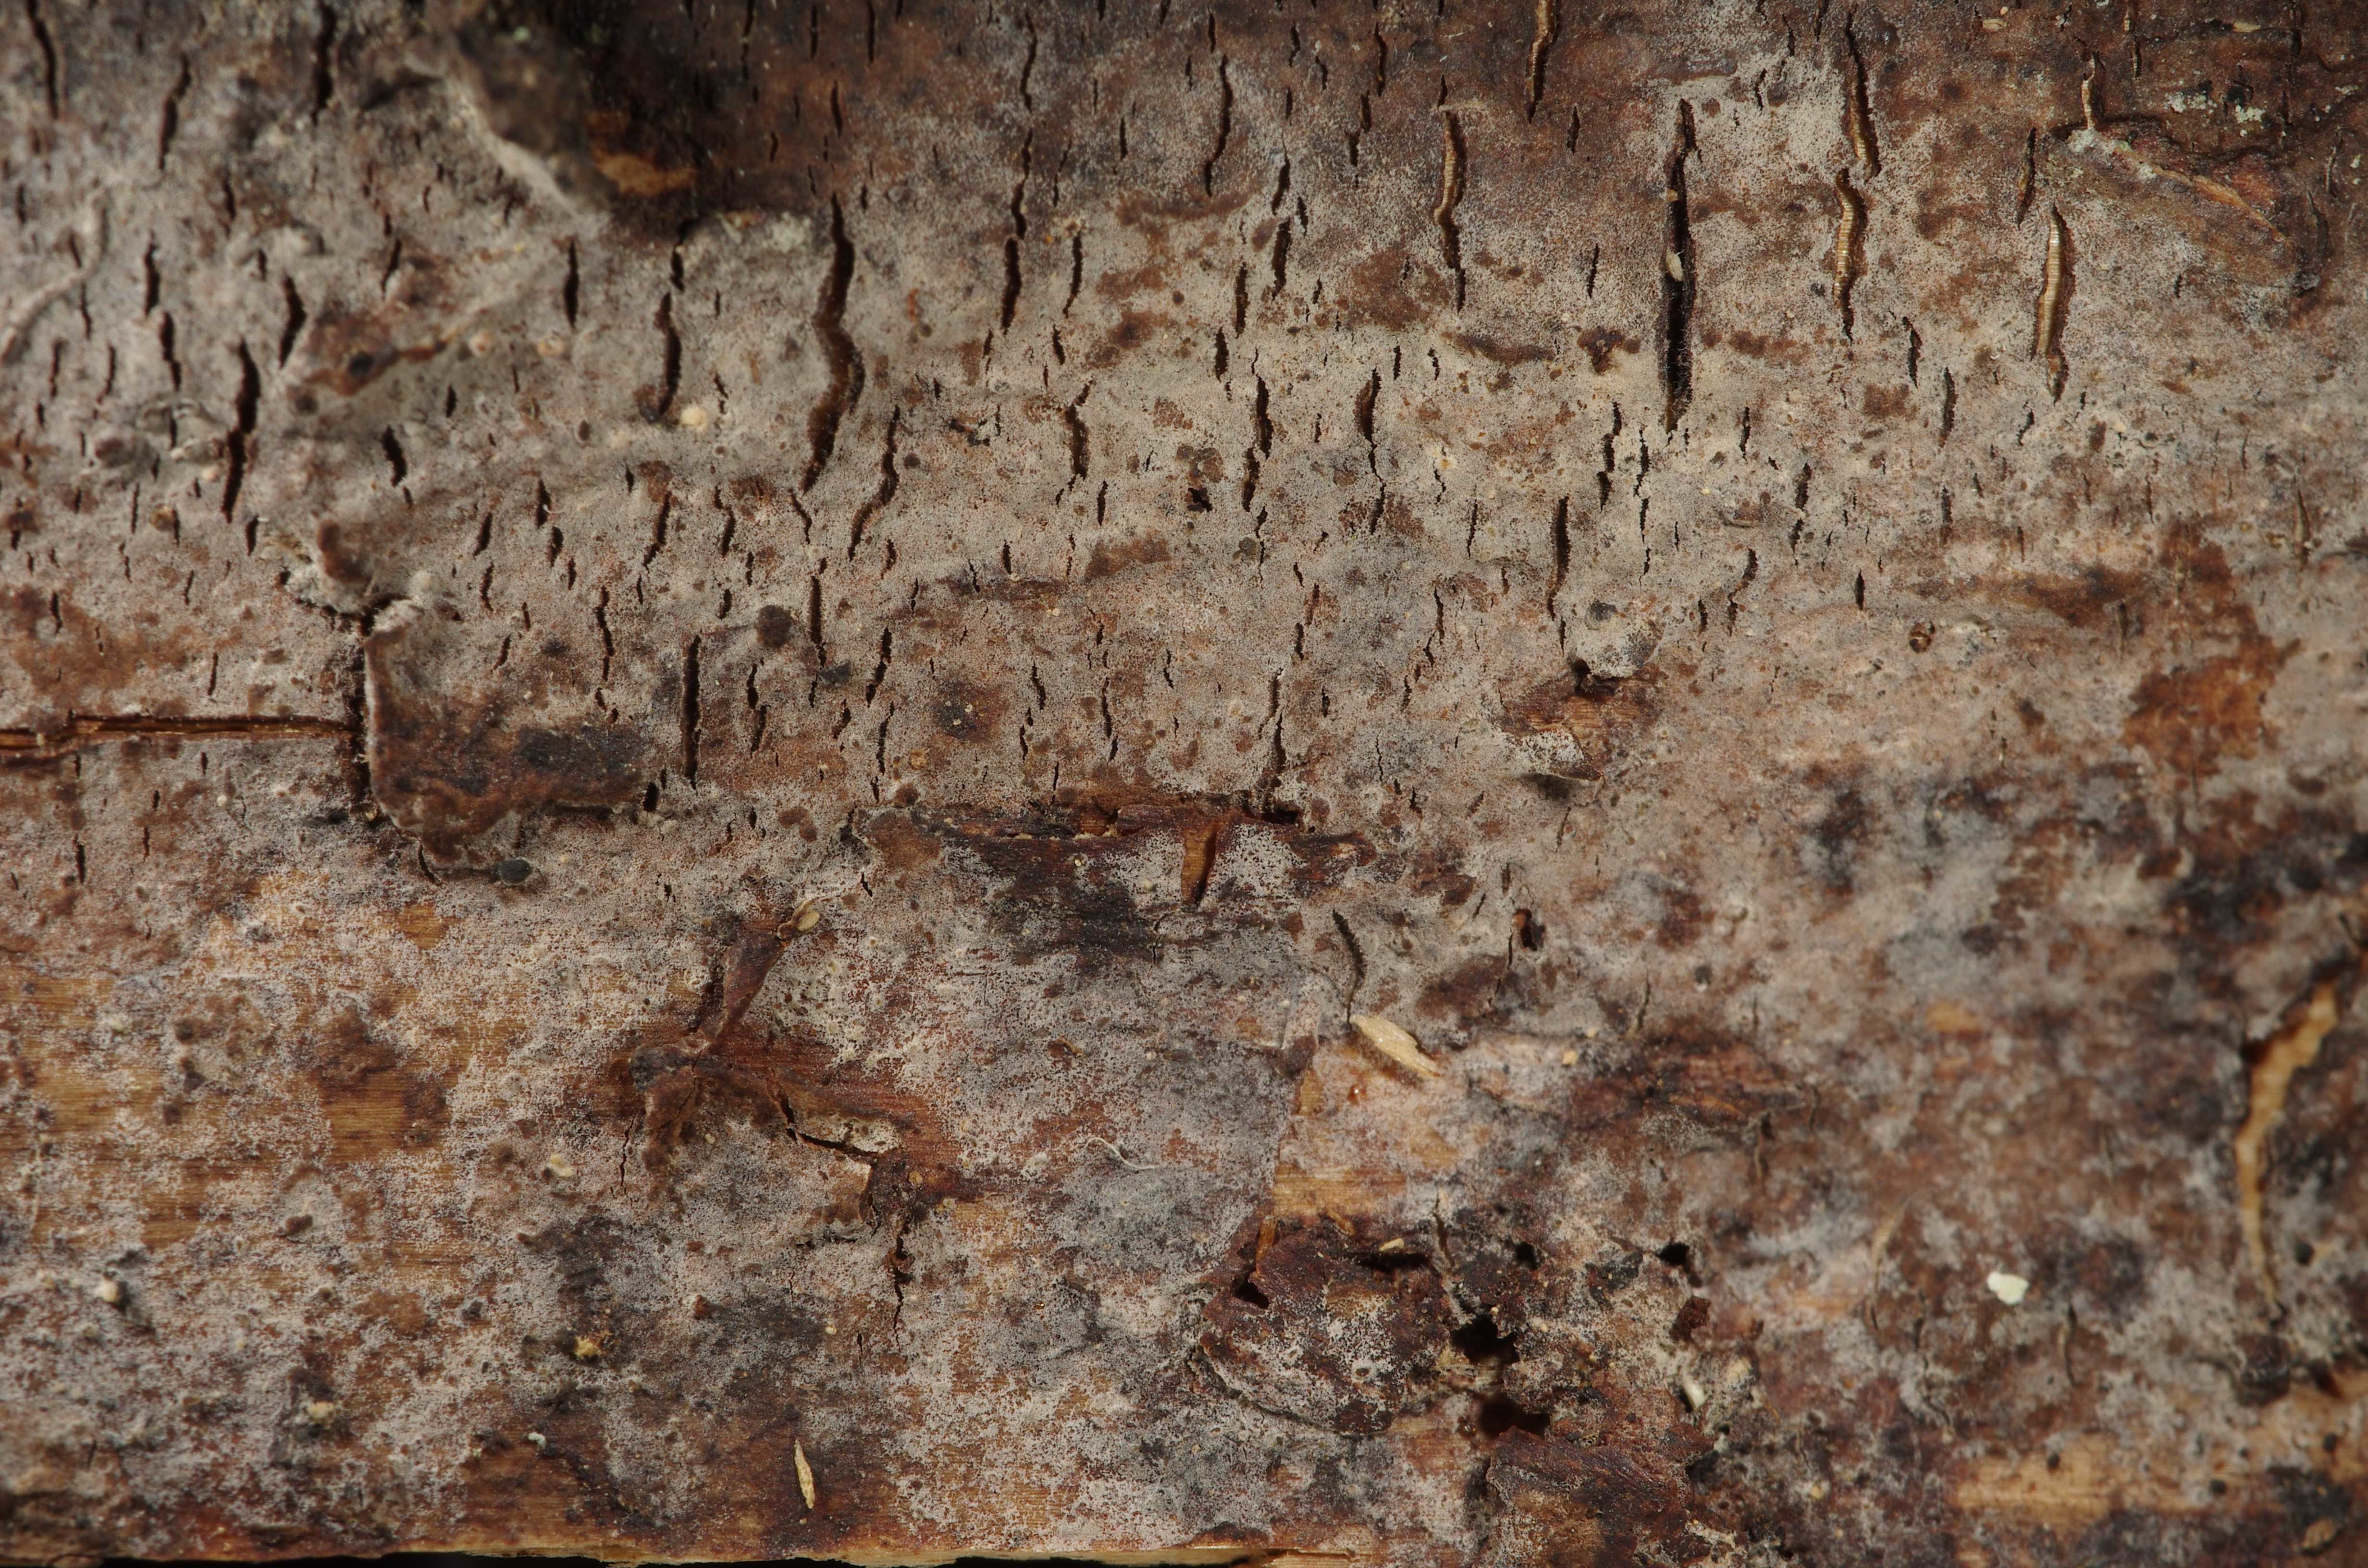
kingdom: Fungi
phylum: Basidiomycota
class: Agaricomycetes
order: Cantharellales
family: Hydnaceae
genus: Sistotrema
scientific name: Sistotrema oblongisporum
